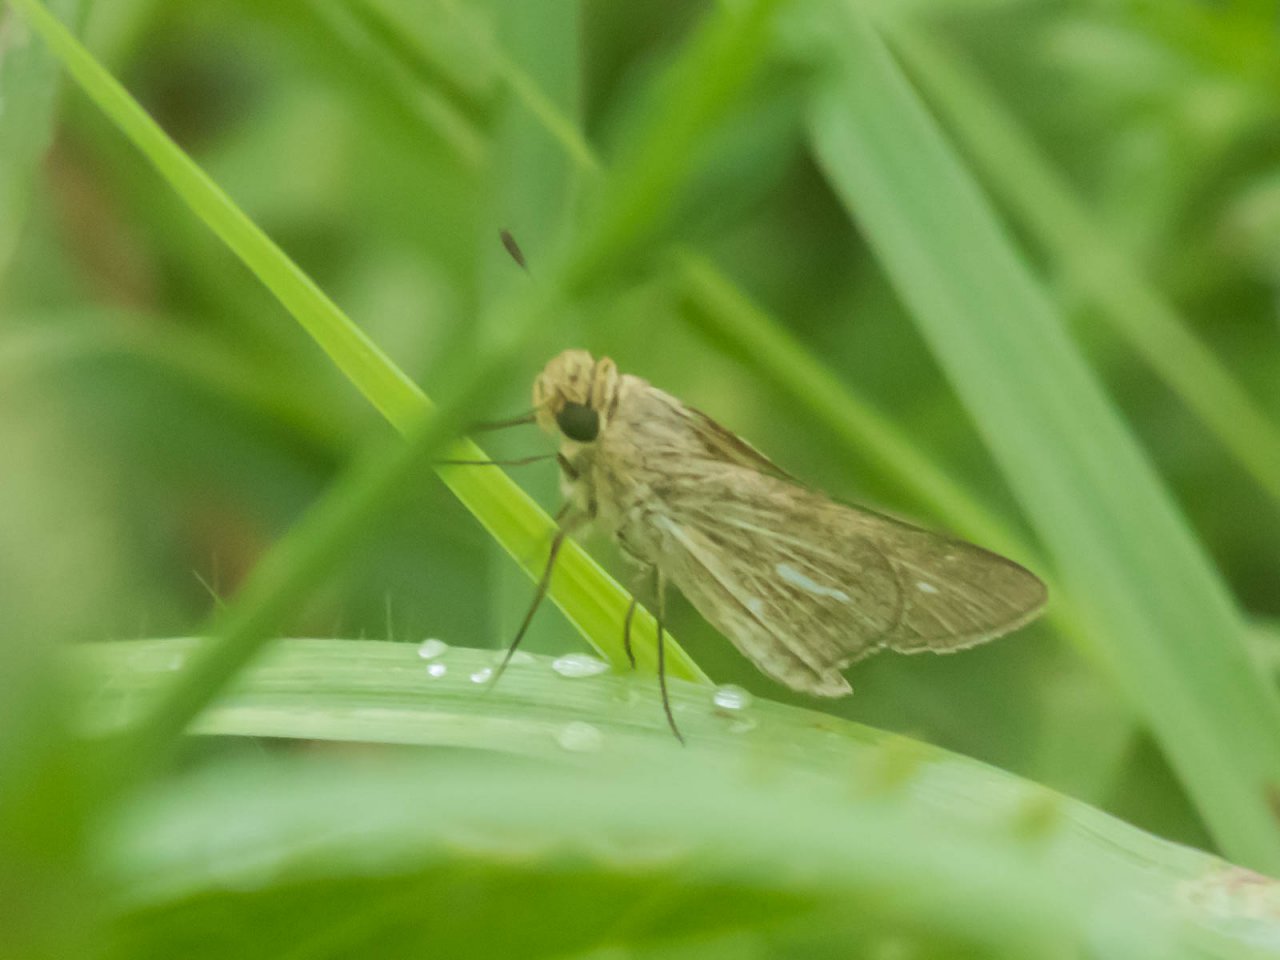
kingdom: Animalia
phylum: Arthropoda
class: Insecta
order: Lepidoptera
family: Hesperiidae
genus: Panoquina
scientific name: Panoquina panoquin
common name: Salt Marsh Skipper
